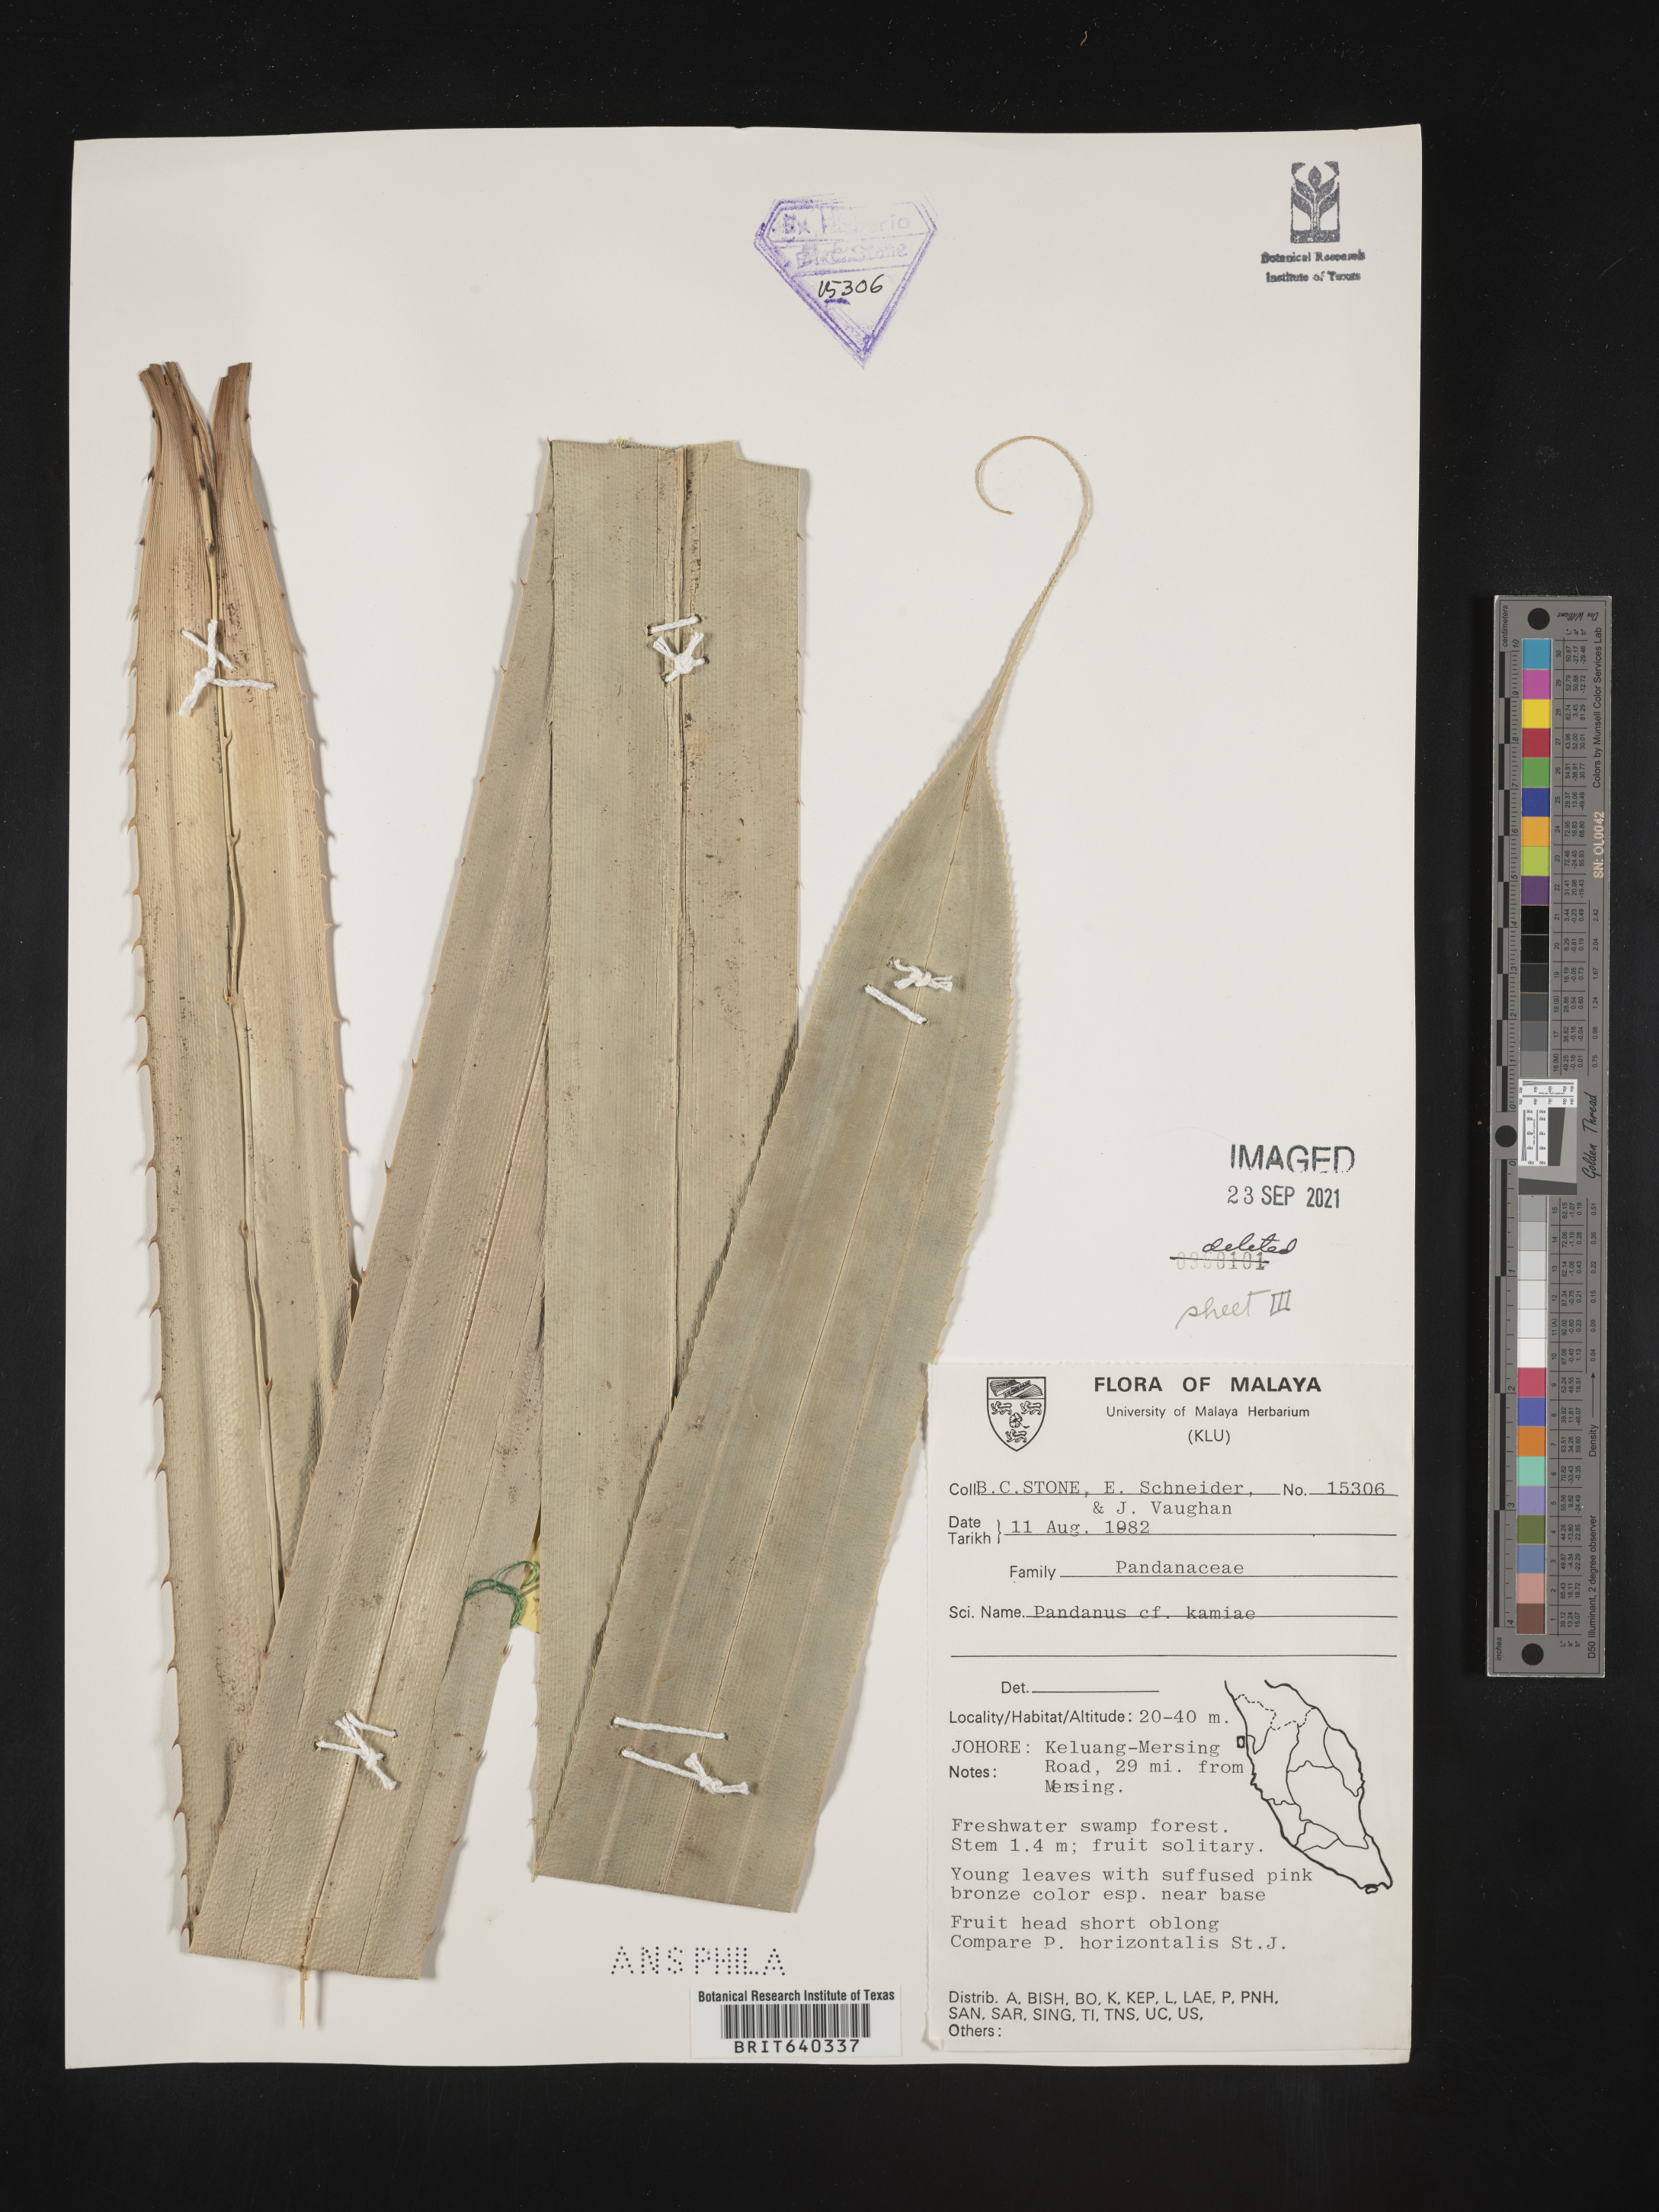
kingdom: Plantae
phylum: Tracheophyta
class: Liliopsida
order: Pandanales
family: Pandanaceae
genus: Pandanus
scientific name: Pandanus kamiae
